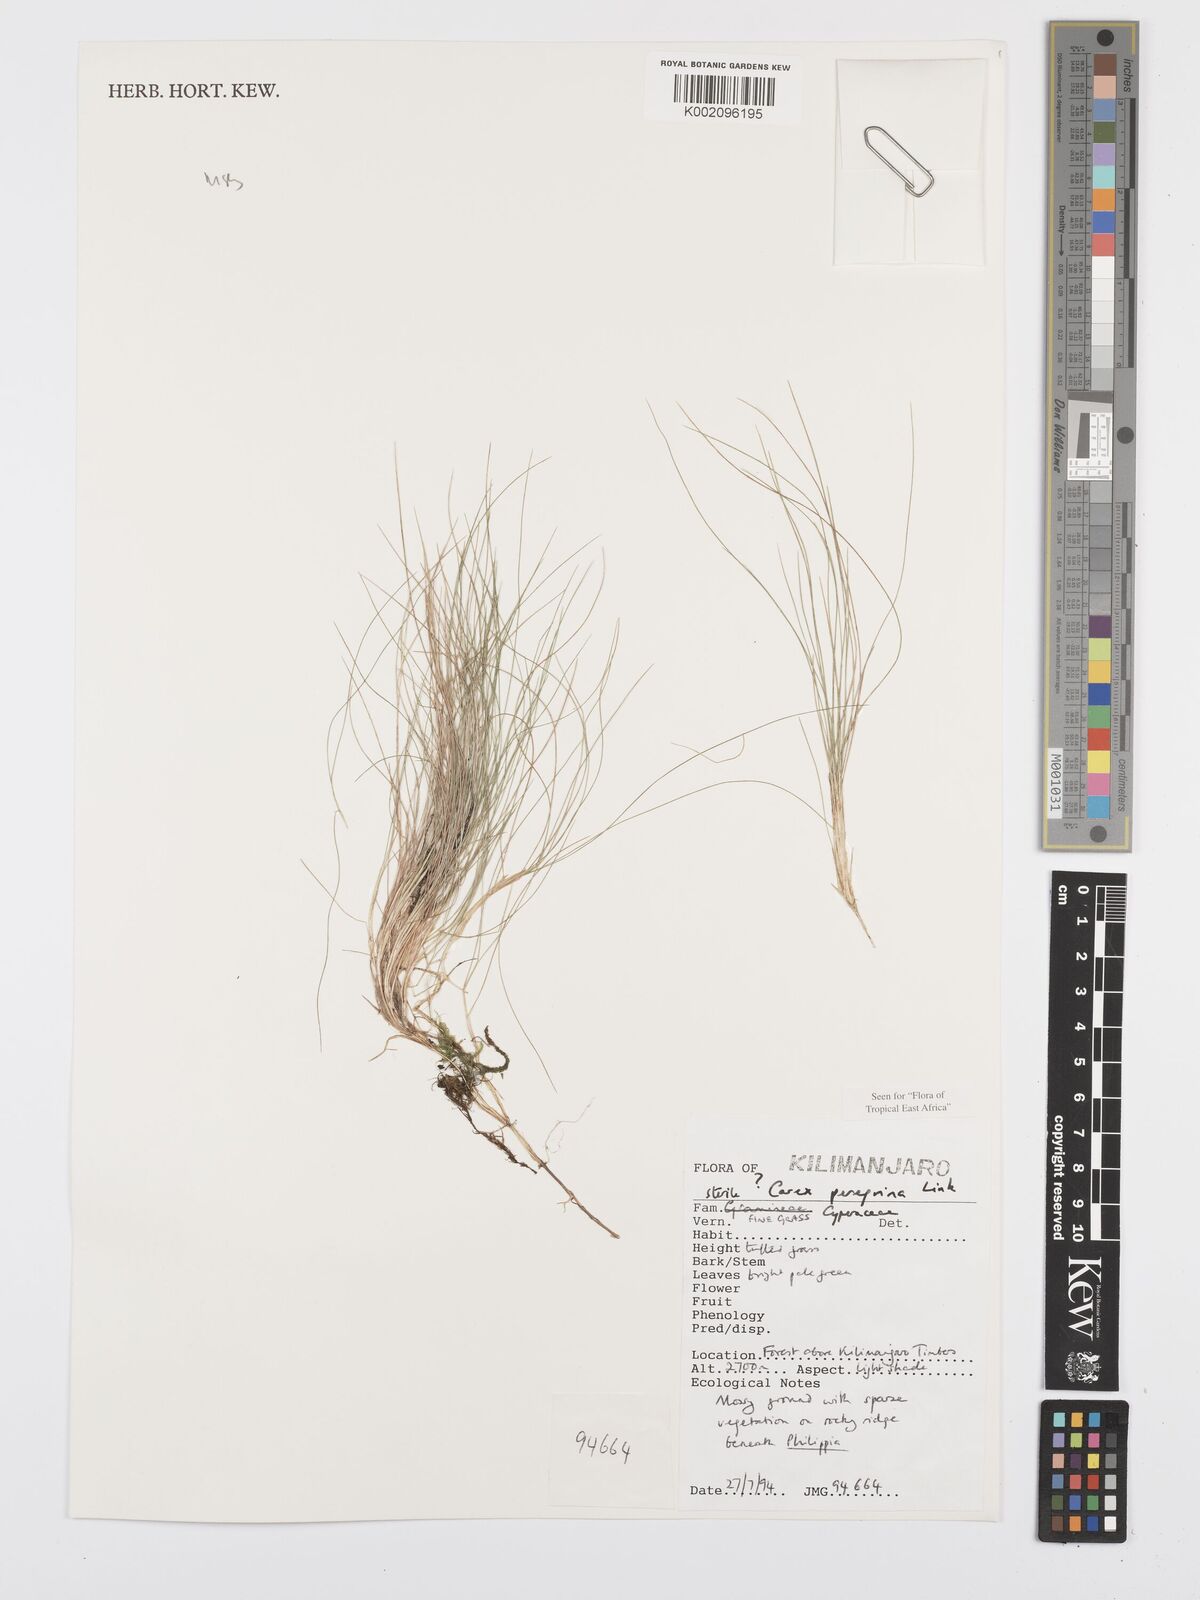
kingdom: Plantae
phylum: Tracheophyta
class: Liliopsida
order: Poales
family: Cyperaceae
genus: Carex
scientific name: Carex peregrina
